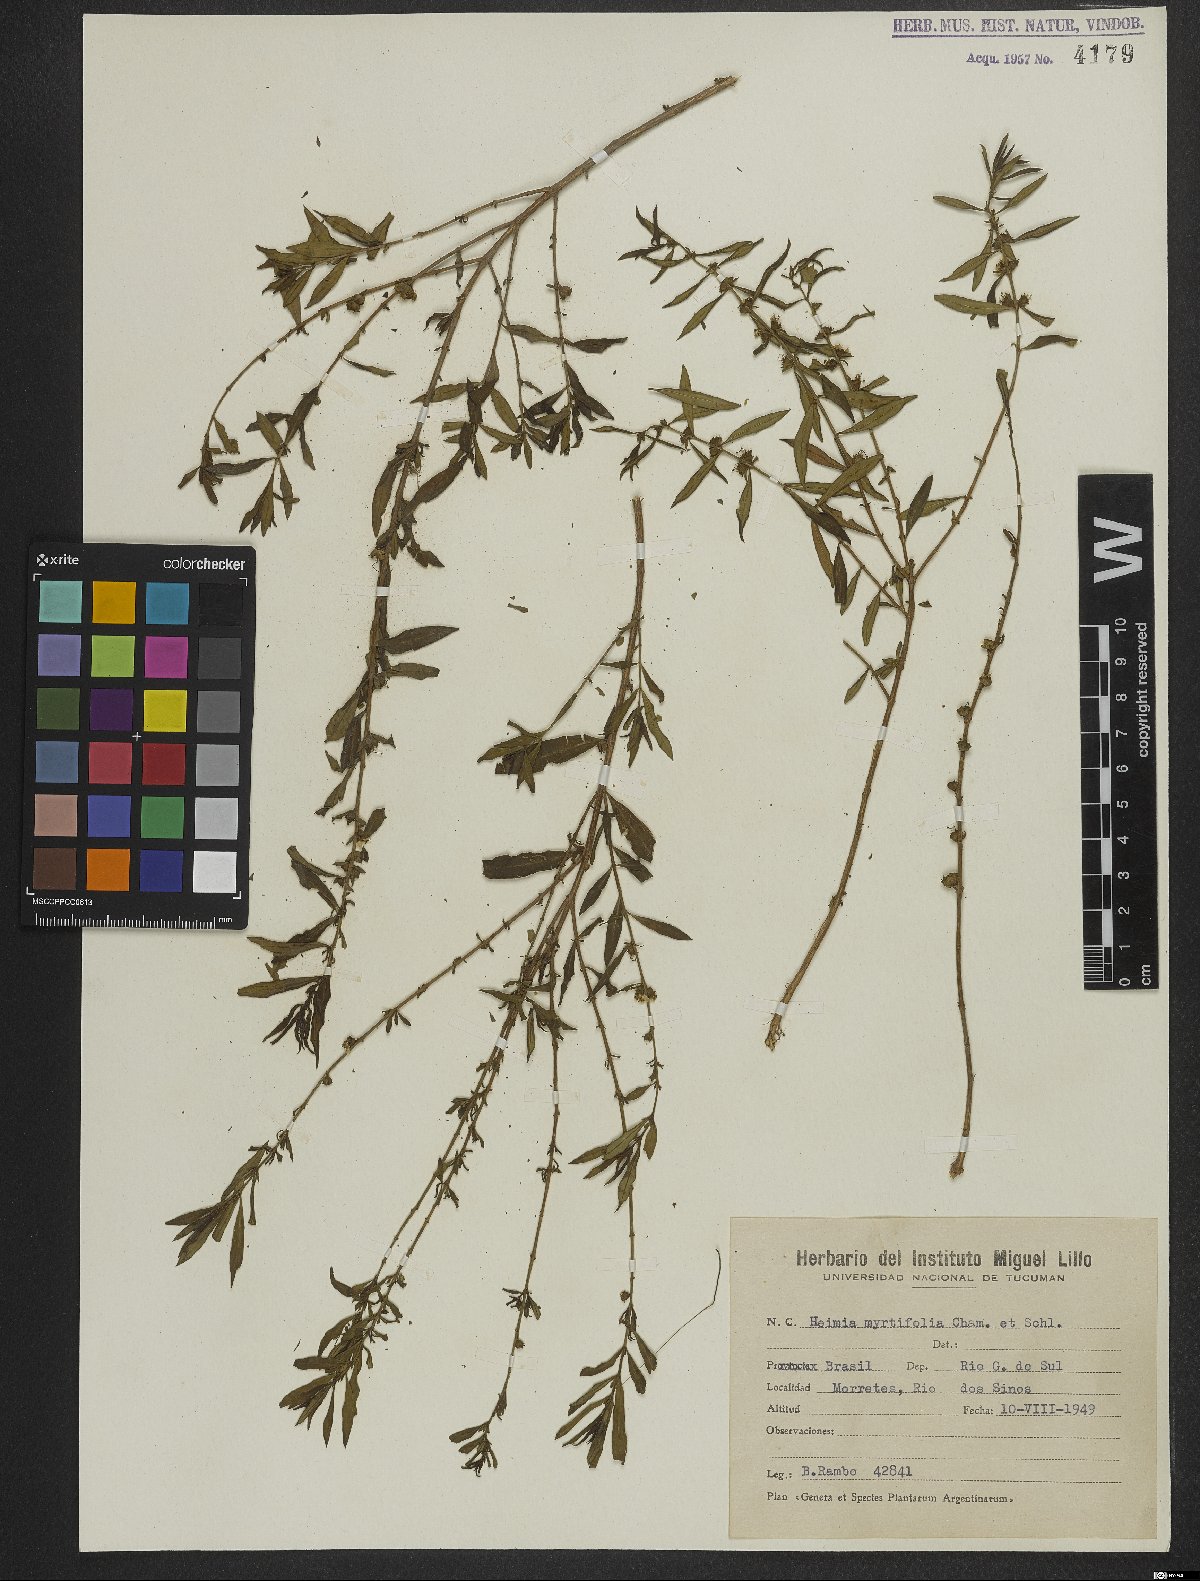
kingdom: Plantae
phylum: Tracheophyta
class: Magnoliopsida
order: Myrtales
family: Lythraceae
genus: Heimia
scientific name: Heimia apetala
